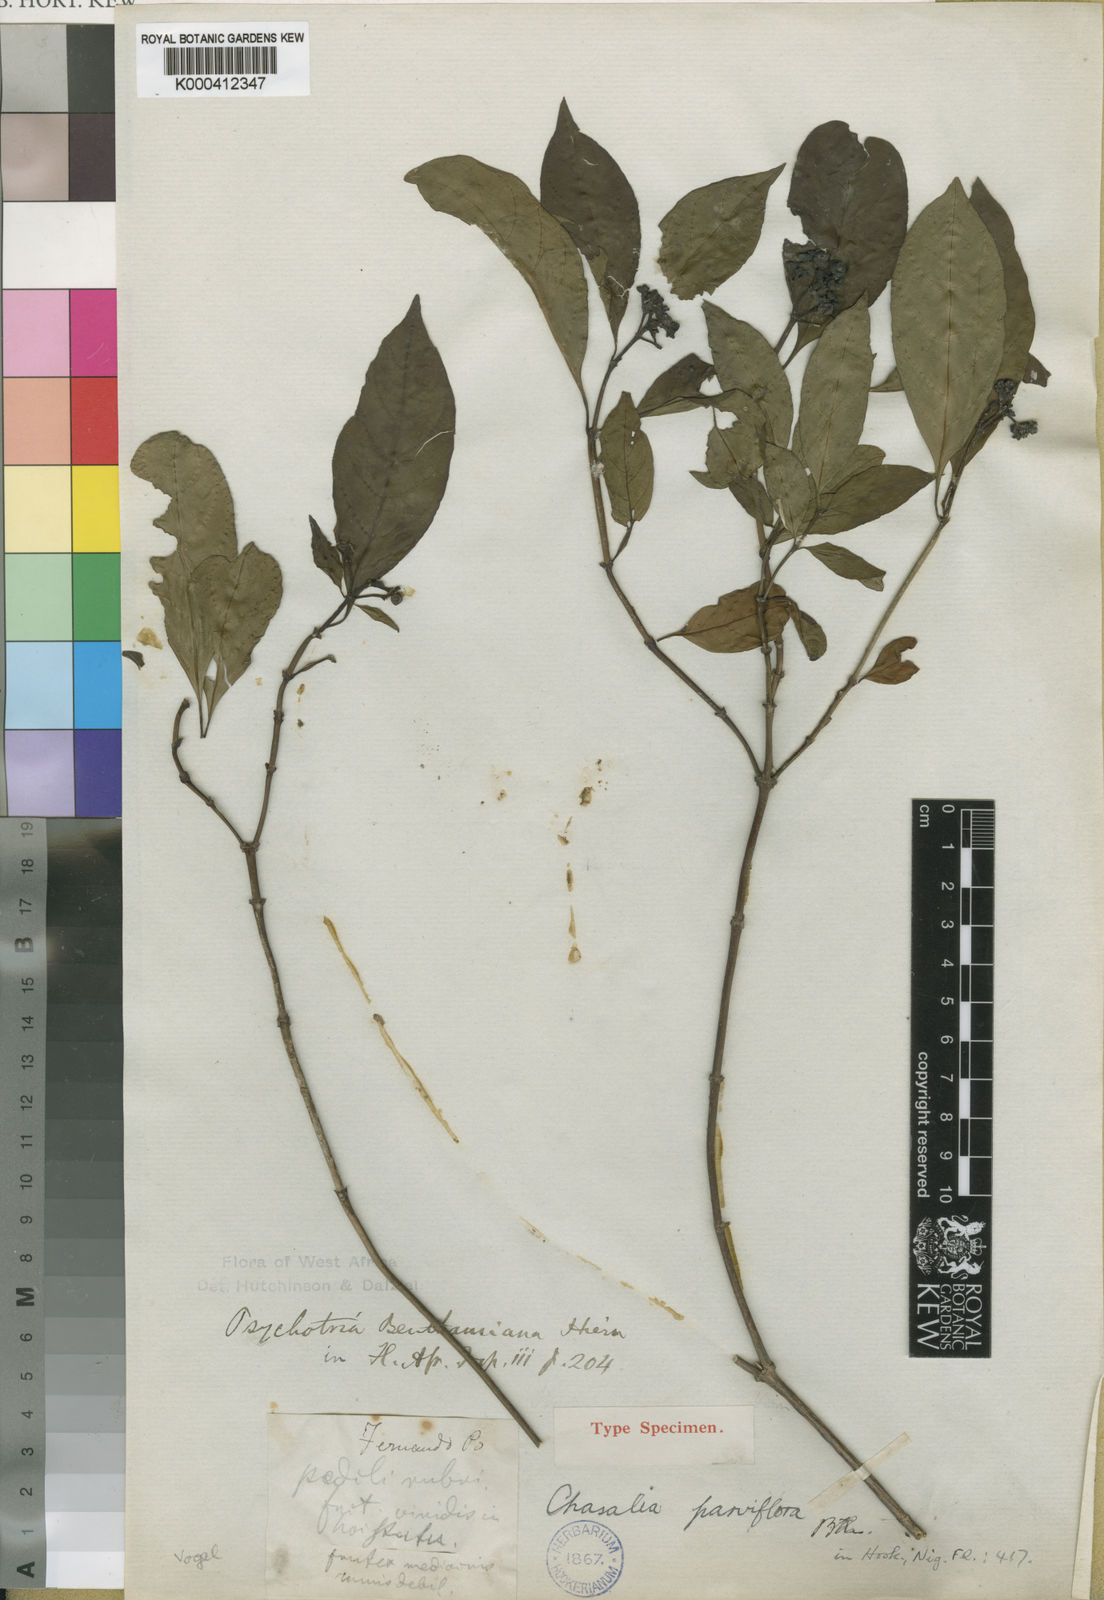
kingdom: Plantae
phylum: Tracheophyta
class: Magnoliopsida
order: Gentianales
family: Rubiaceae
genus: Chassalia
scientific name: Chassalia kolly
